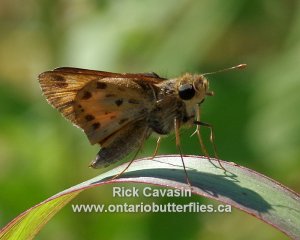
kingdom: Animalia
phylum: Arthropoda
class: Insecta
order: Lepidoptera
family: Hesperiidae
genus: Hylephila
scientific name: Hylephila phyleus
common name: Fiery Skipper
